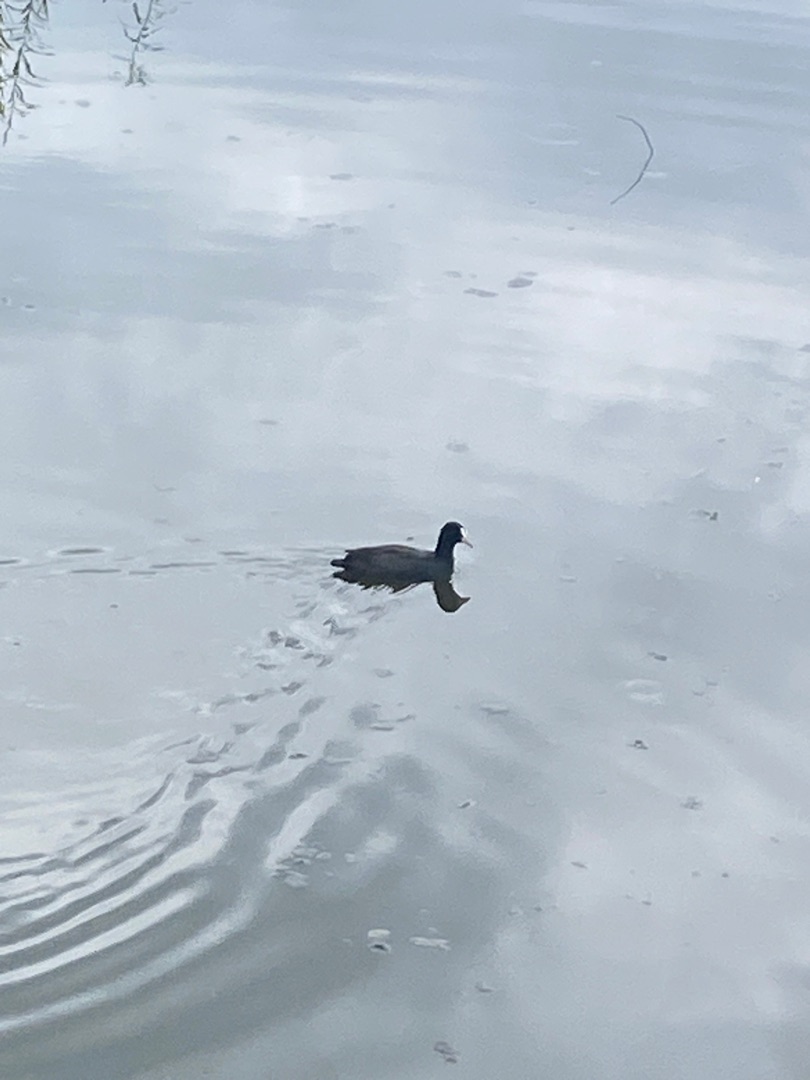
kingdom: Animalia
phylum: Chordata
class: Aves
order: Gruiformes
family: Rallidae
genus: Fulica
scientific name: Fulica atra
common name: Blishøne
